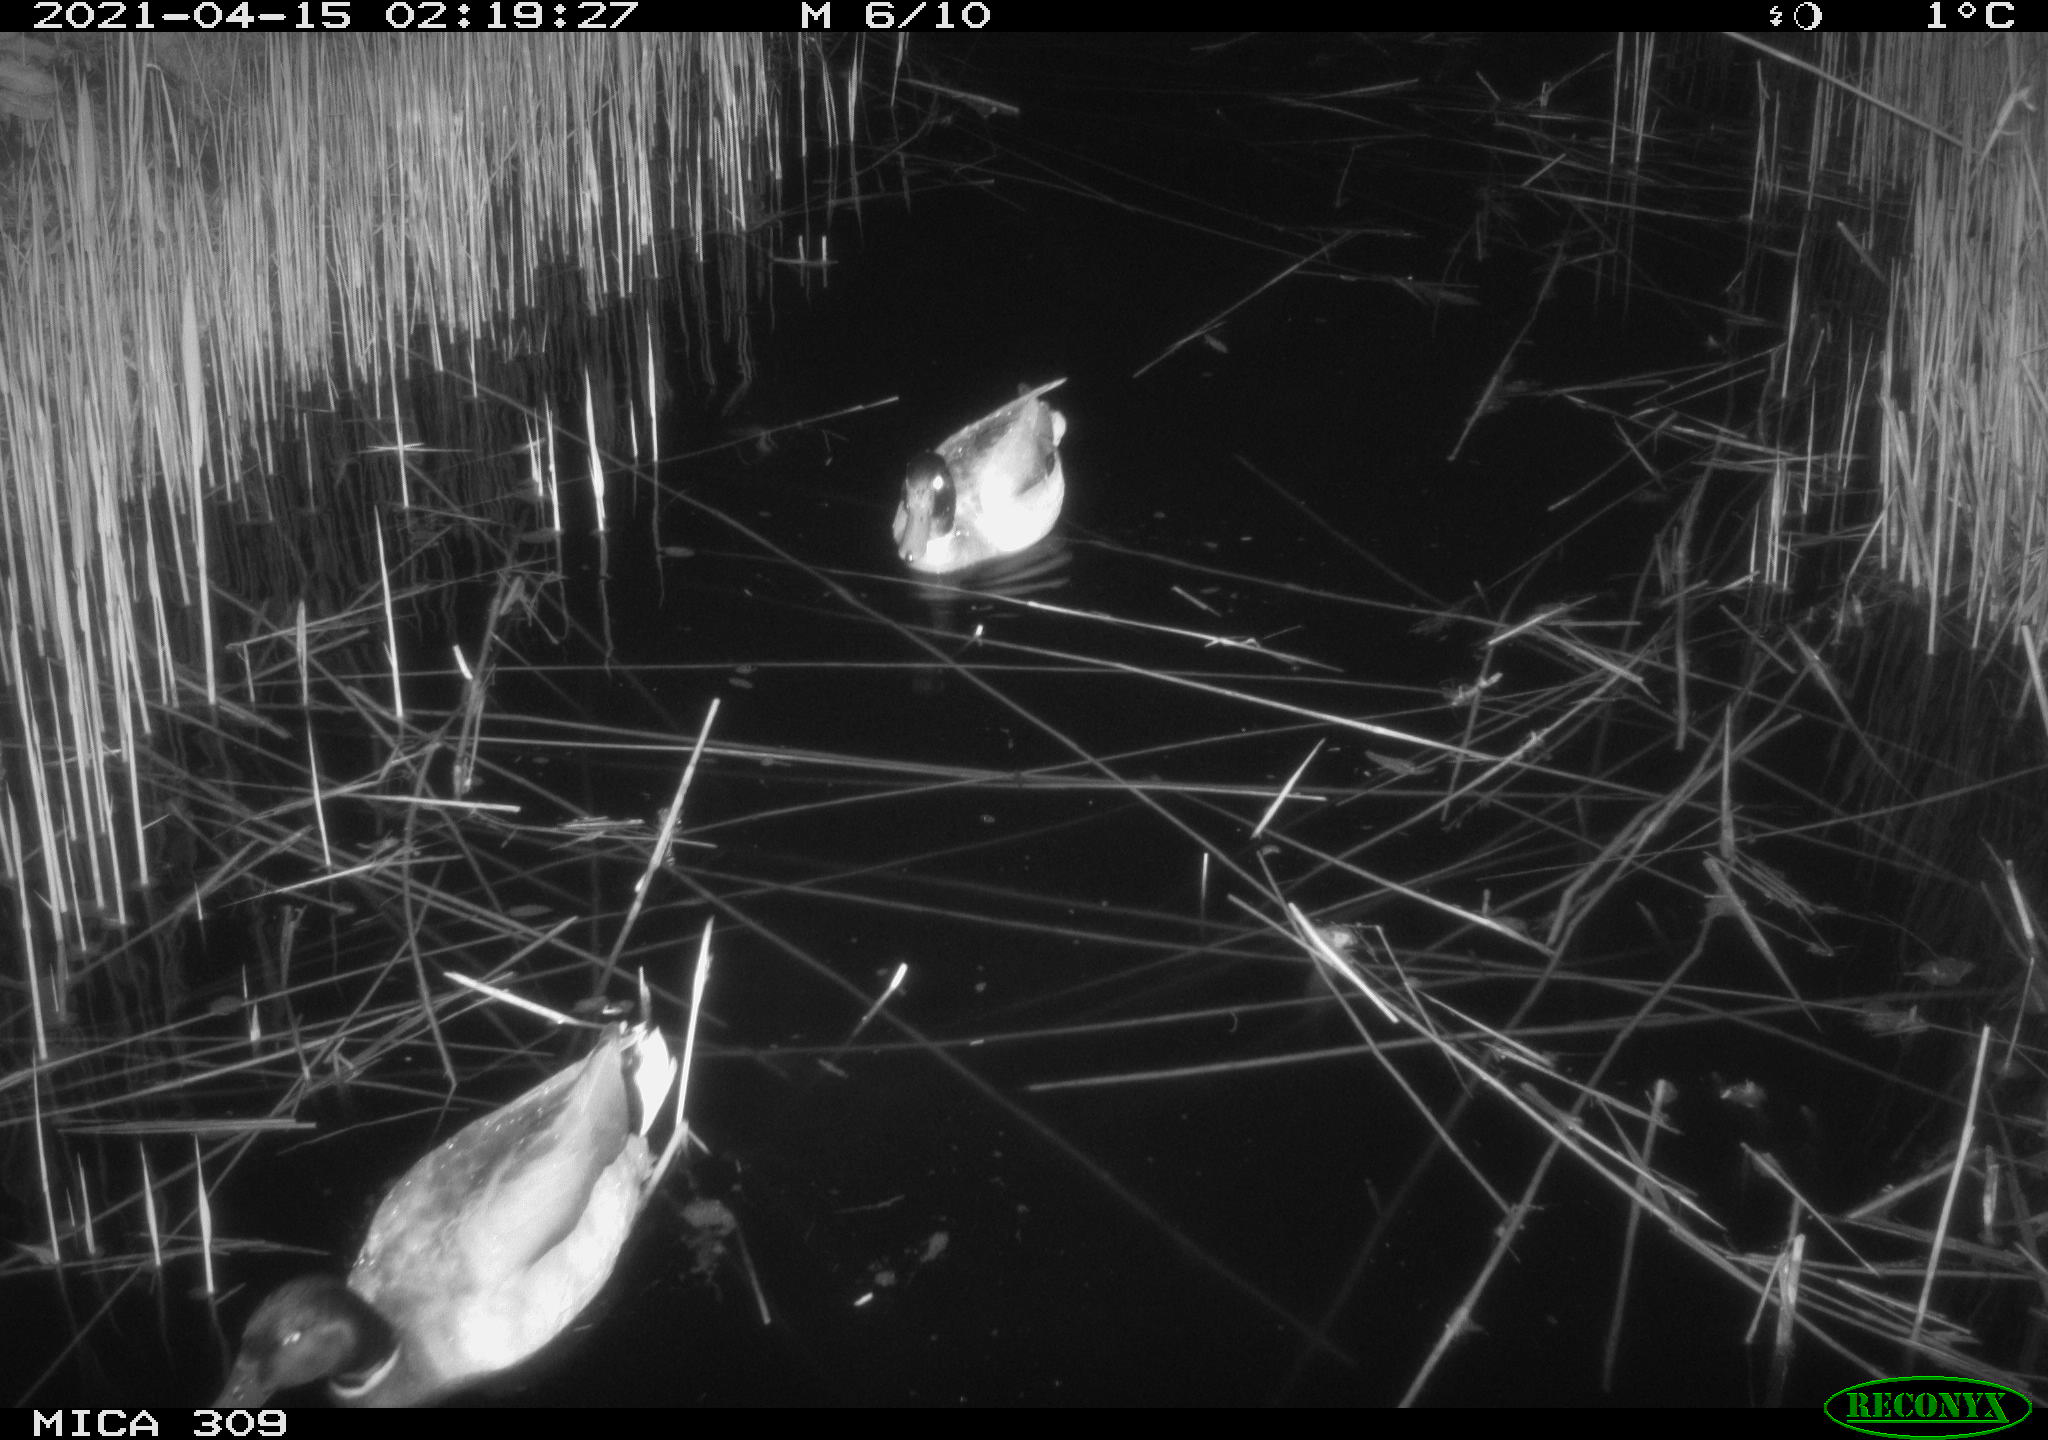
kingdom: Animalia
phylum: Chordata
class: Aves
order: Anseriformes
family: Anatidae
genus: Anas
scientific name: Anas platyrhynchos
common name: Mallard
